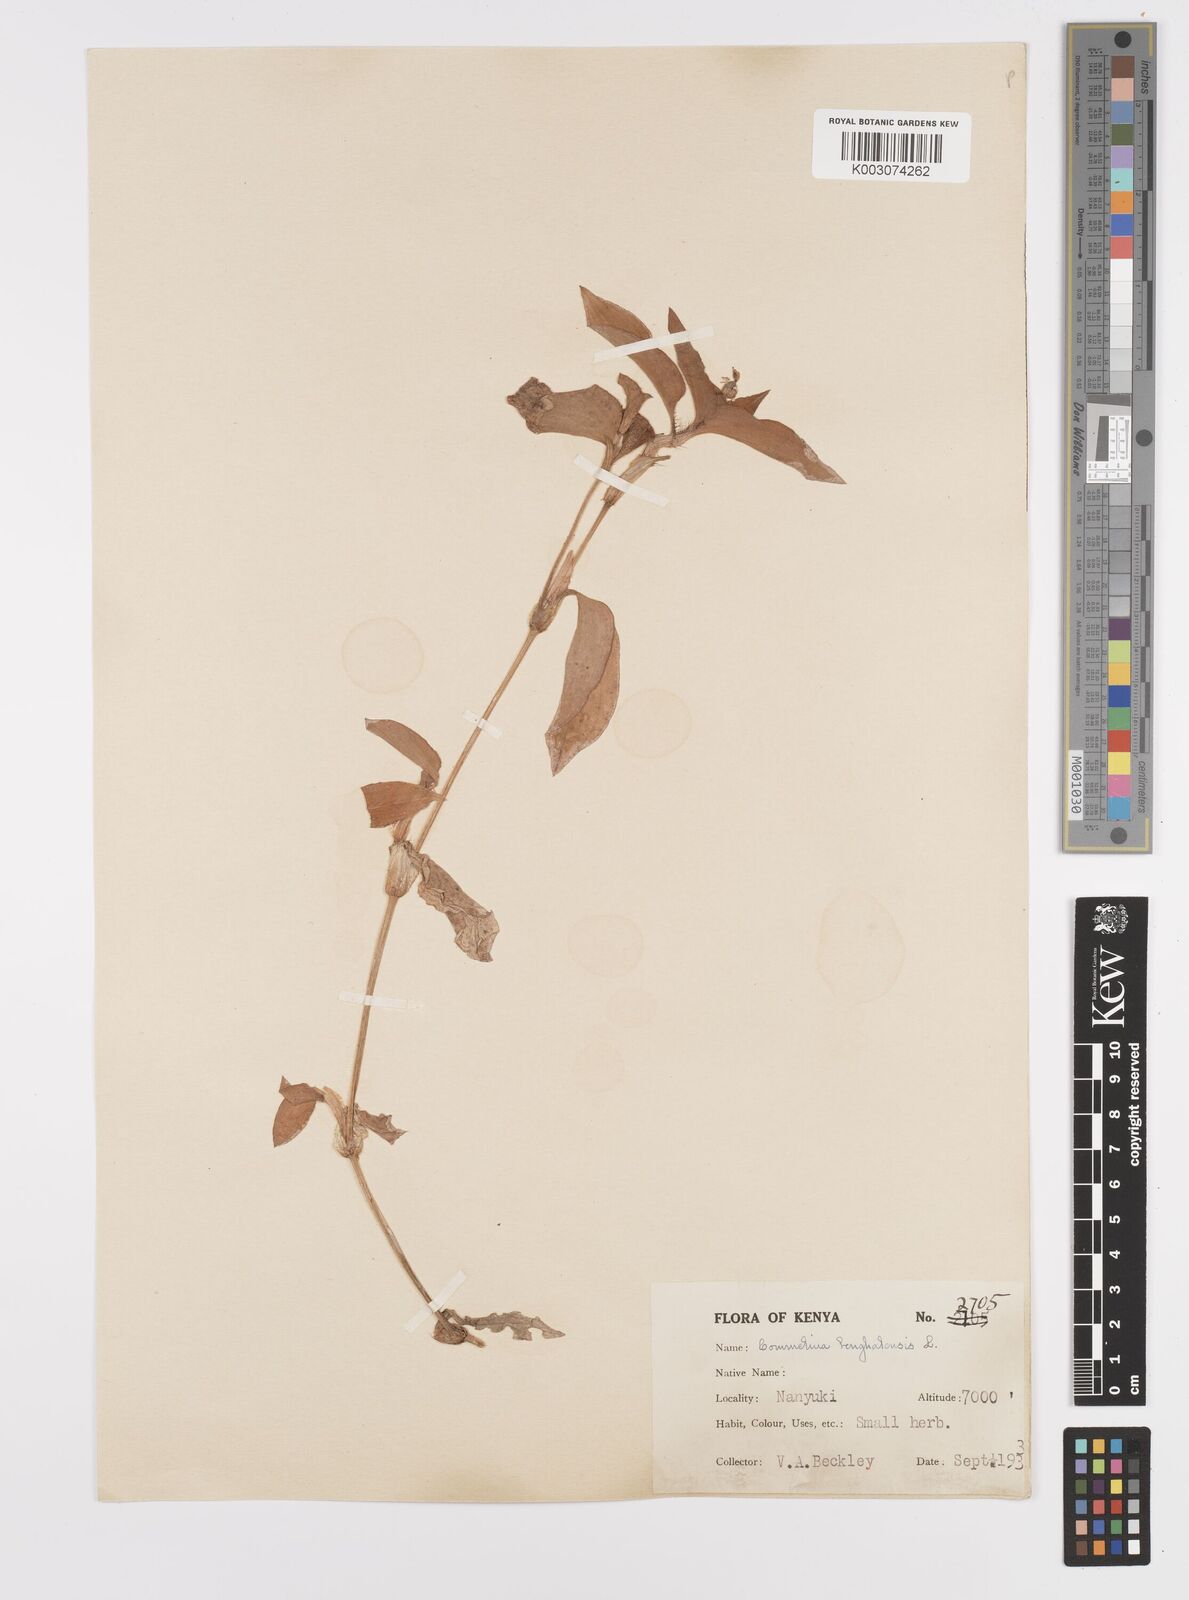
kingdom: Plantae
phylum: Tracheophyta
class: Liliopsida
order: Commelinales
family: Commelinaceae
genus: Commelina
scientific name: Commelina benghalensis
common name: Jio
